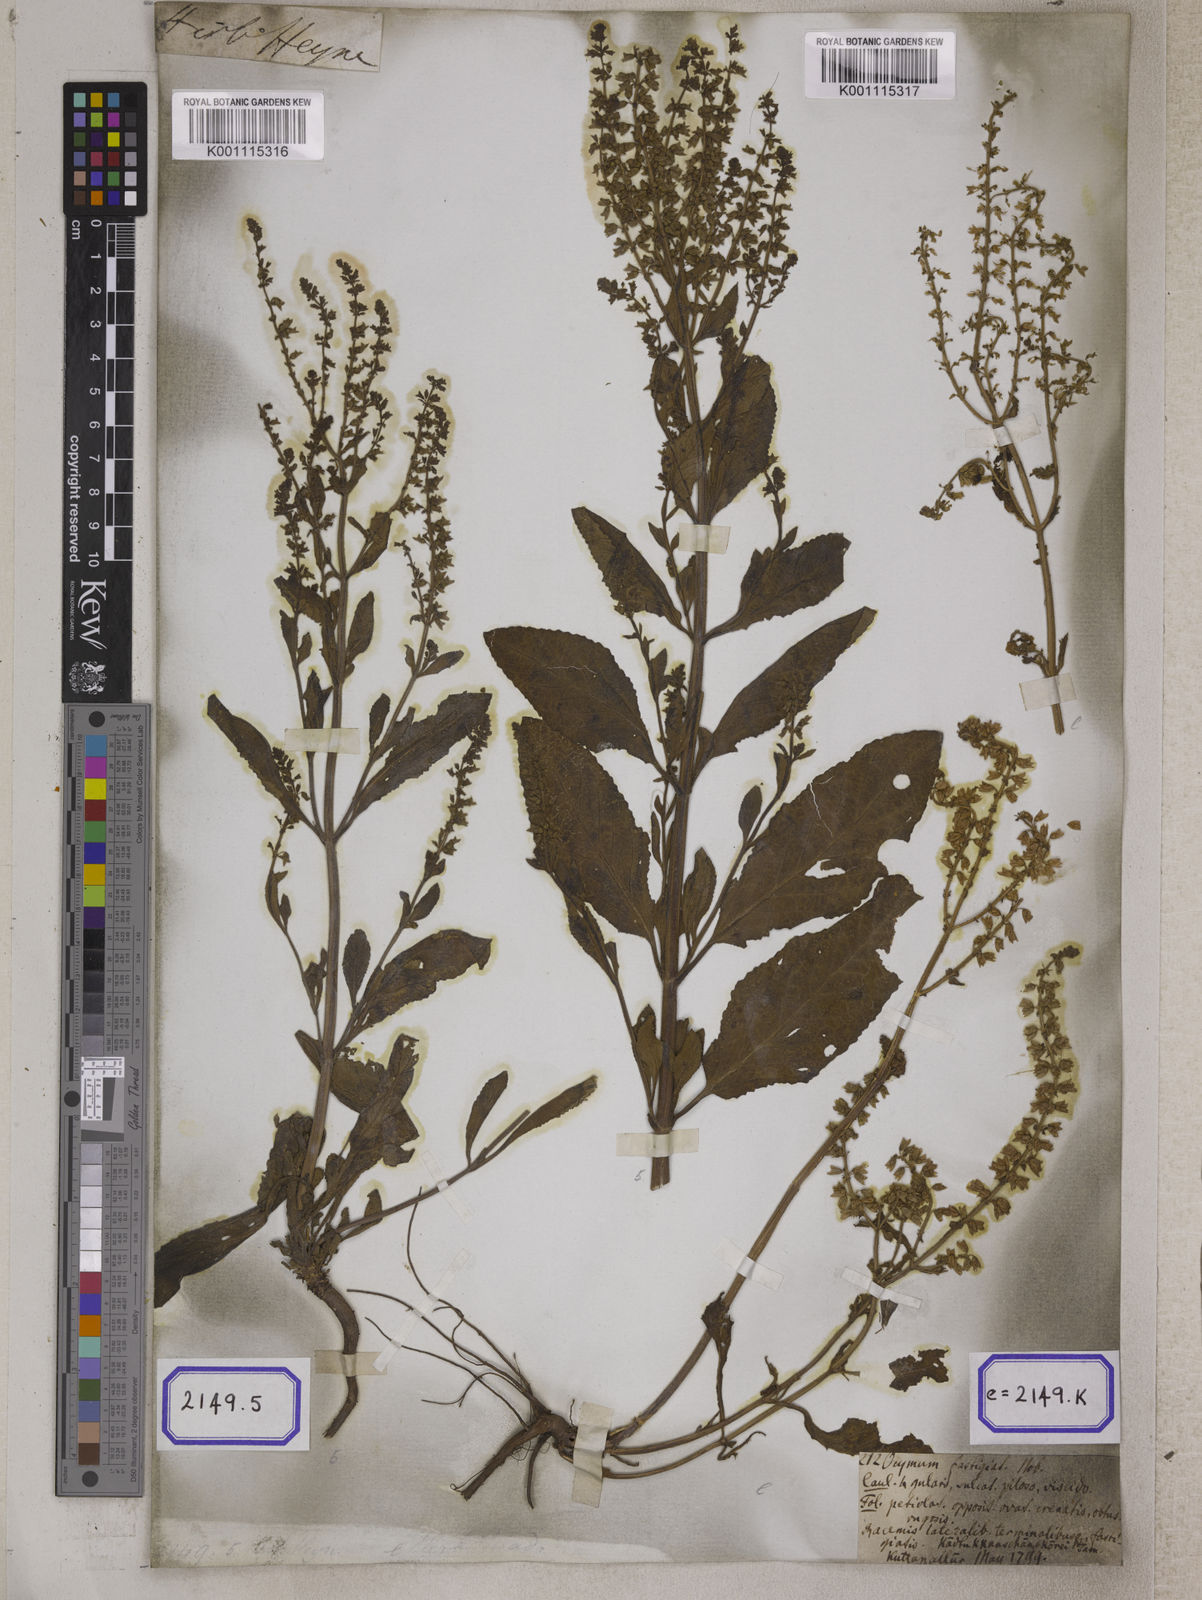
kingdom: Plantae
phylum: Tracheophyta
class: Magnoliopsida
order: Lamiales
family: Lamiaceae
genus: Salvia
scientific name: Salvia plebeia
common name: Australian sage
